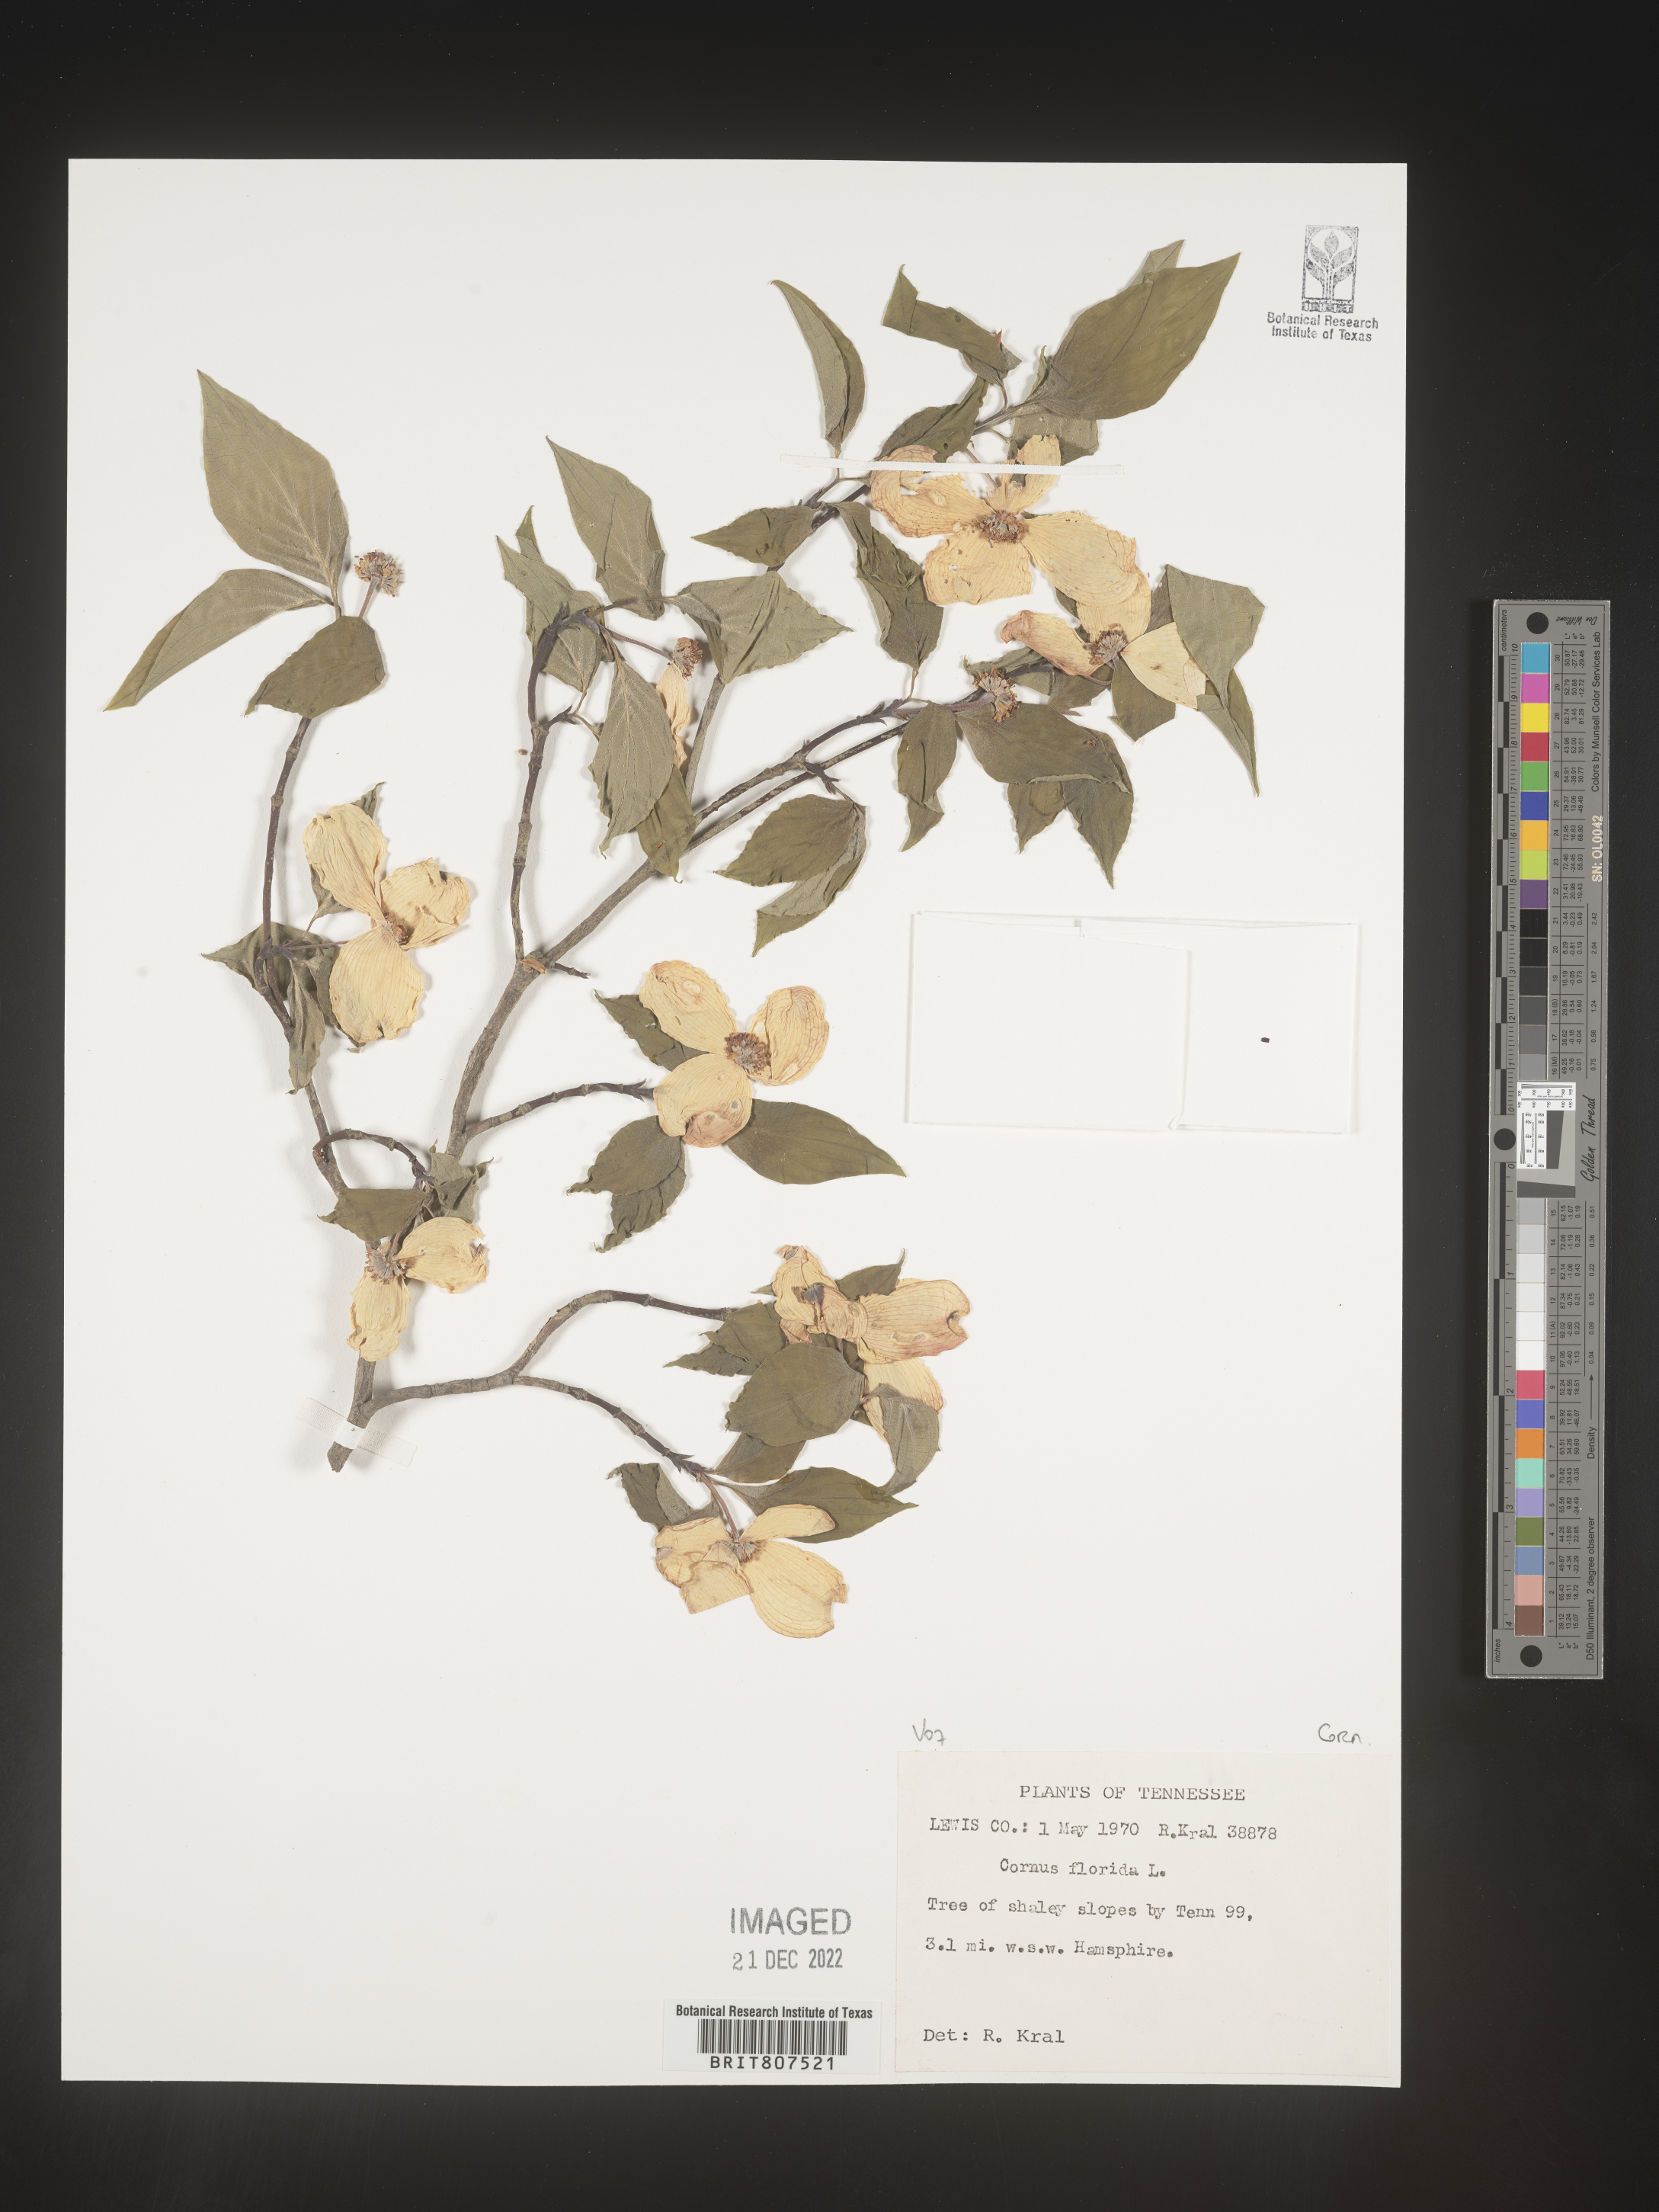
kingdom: Plantae
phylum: Tracheophyta
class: Magnoliopsida
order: Cornales
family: Cornaceae
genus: Cornus
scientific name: Cornus florida
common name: Flowering dogwood
